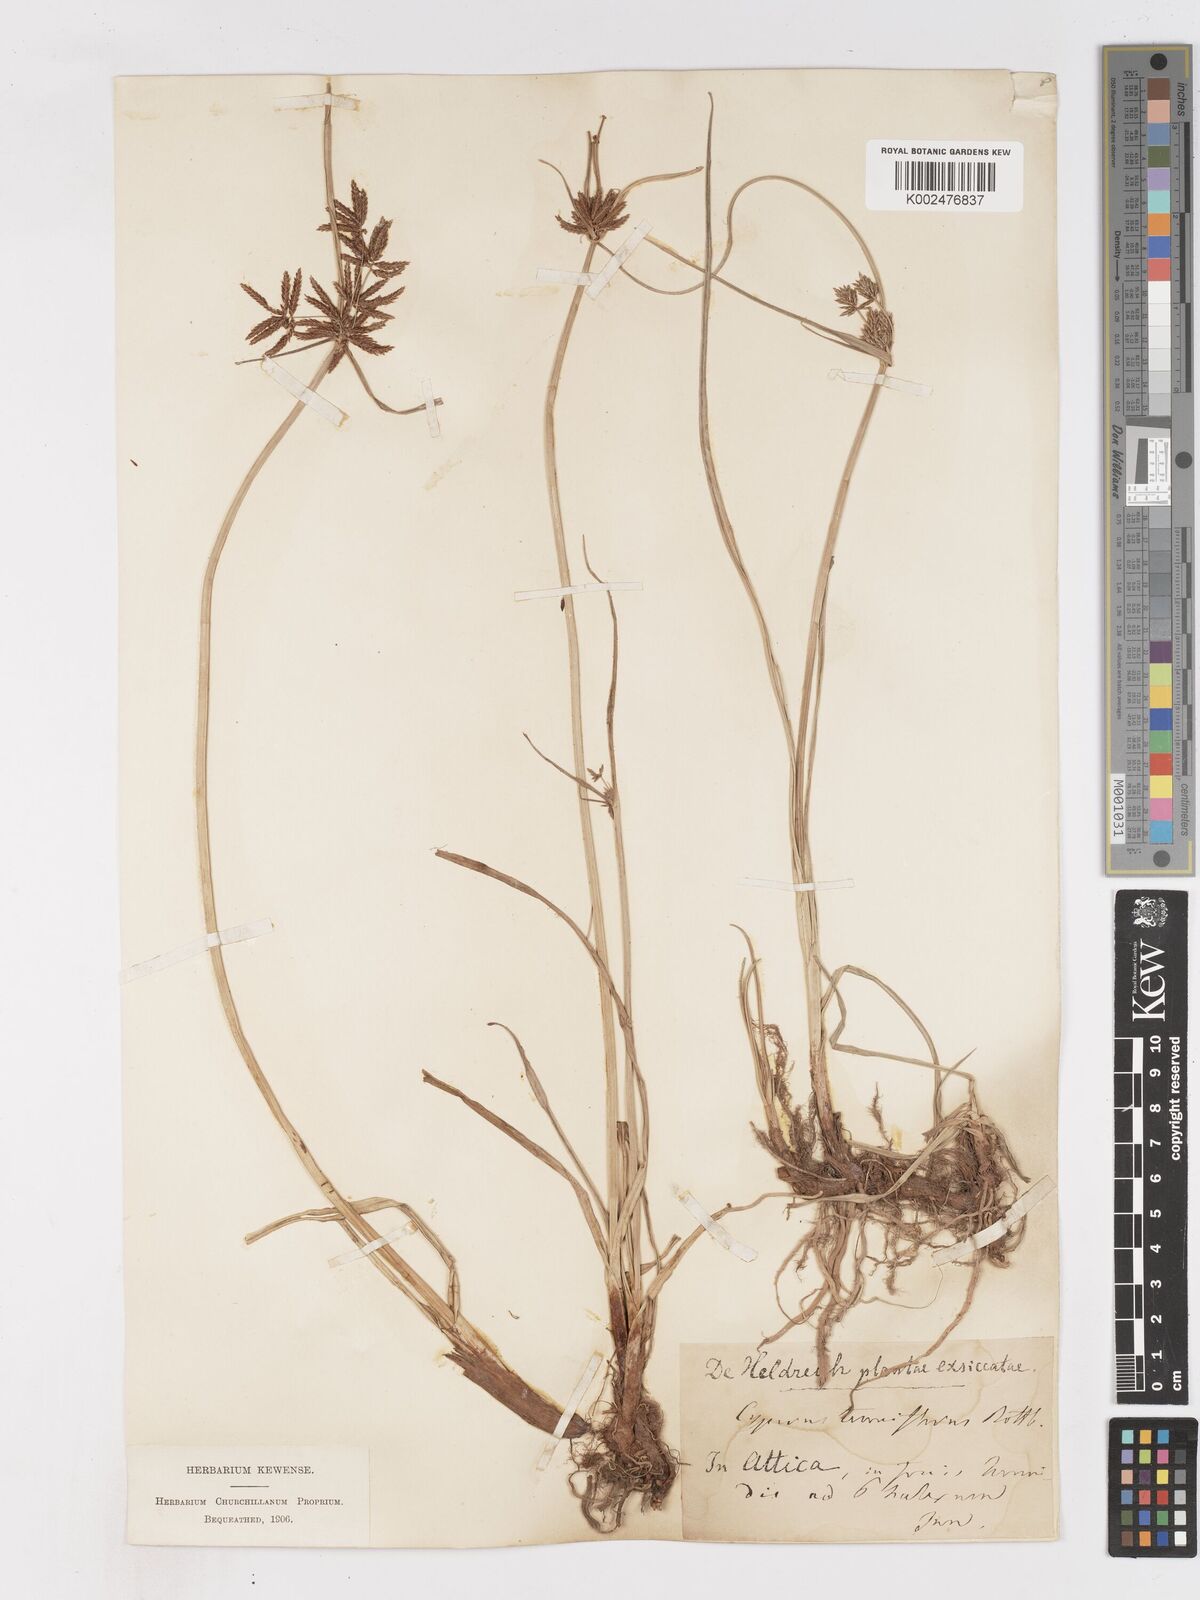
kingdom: Plantae
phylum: Tracheophyta
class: Liliopsida
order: Poales
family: Cyperaceae
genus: Cyperus
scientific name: Cyperus longus
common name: Galingale
